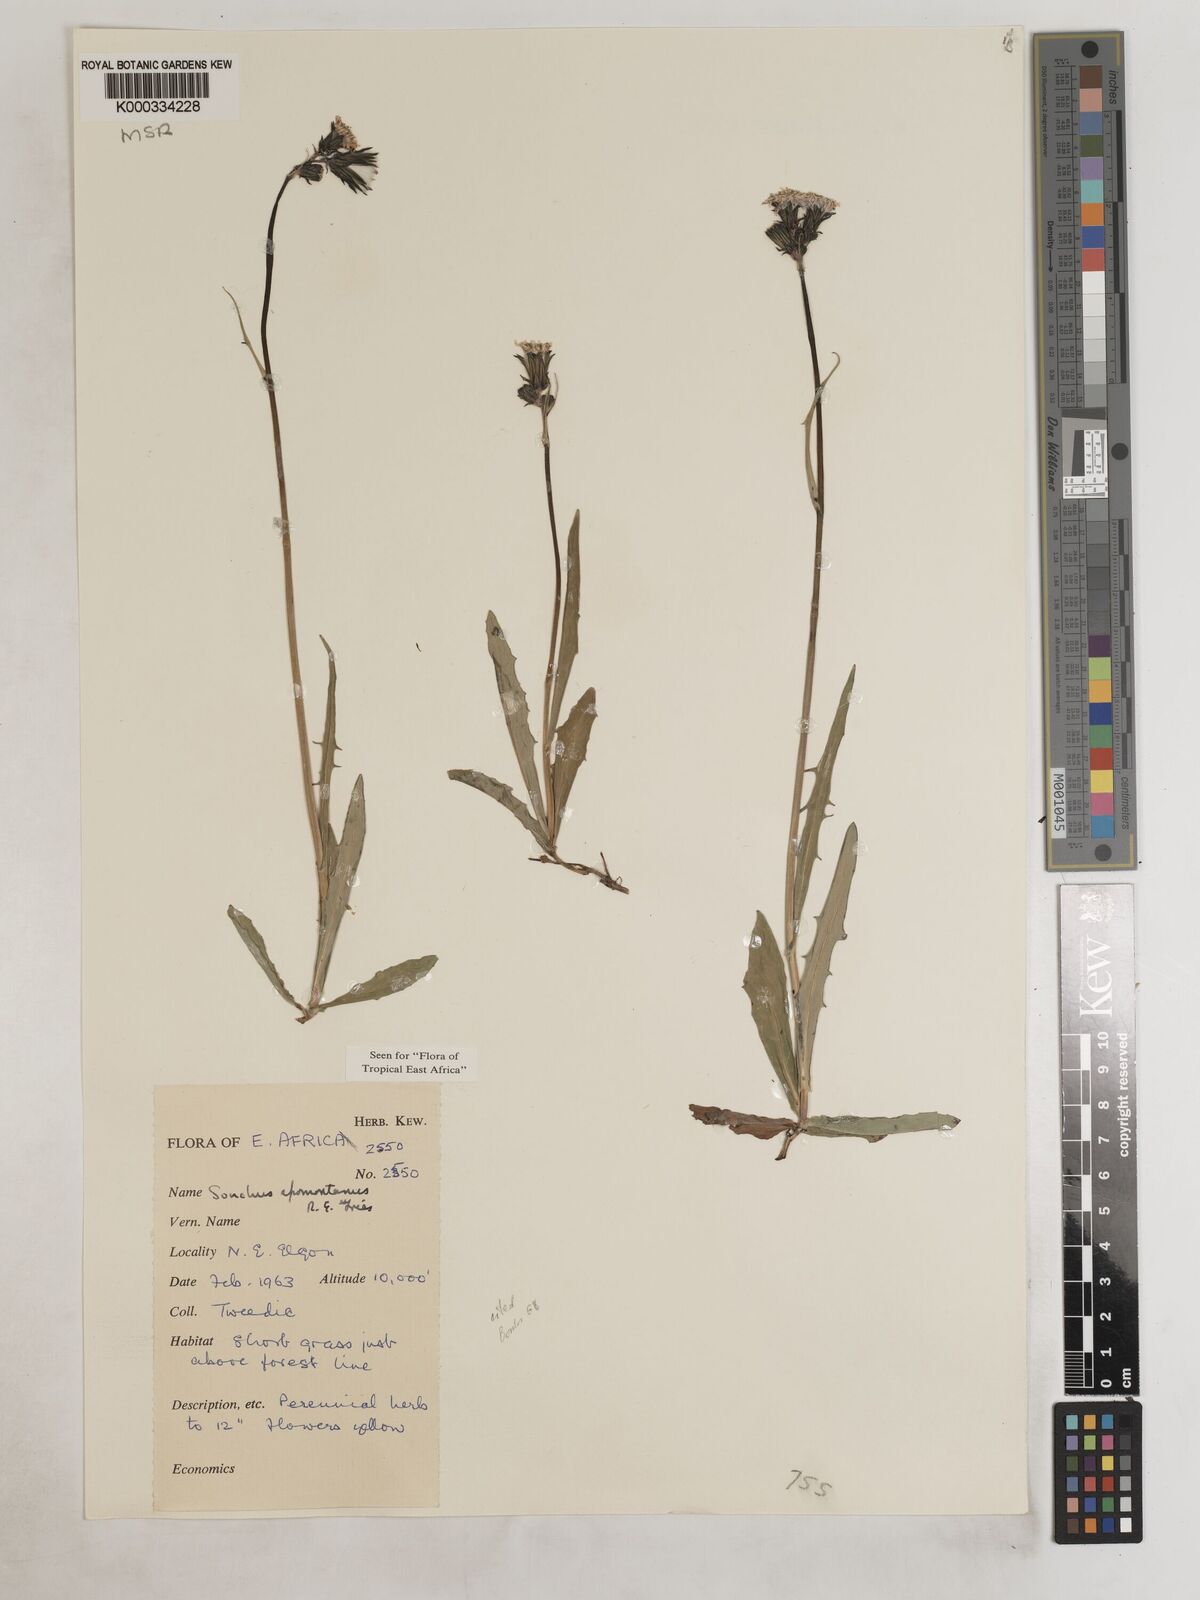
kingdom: Plantae
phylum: Tracheophyta
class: Magnoliopsida
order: Asterales
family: Asteraceae
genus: Sonchus
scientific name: Sonchus afromontanus
